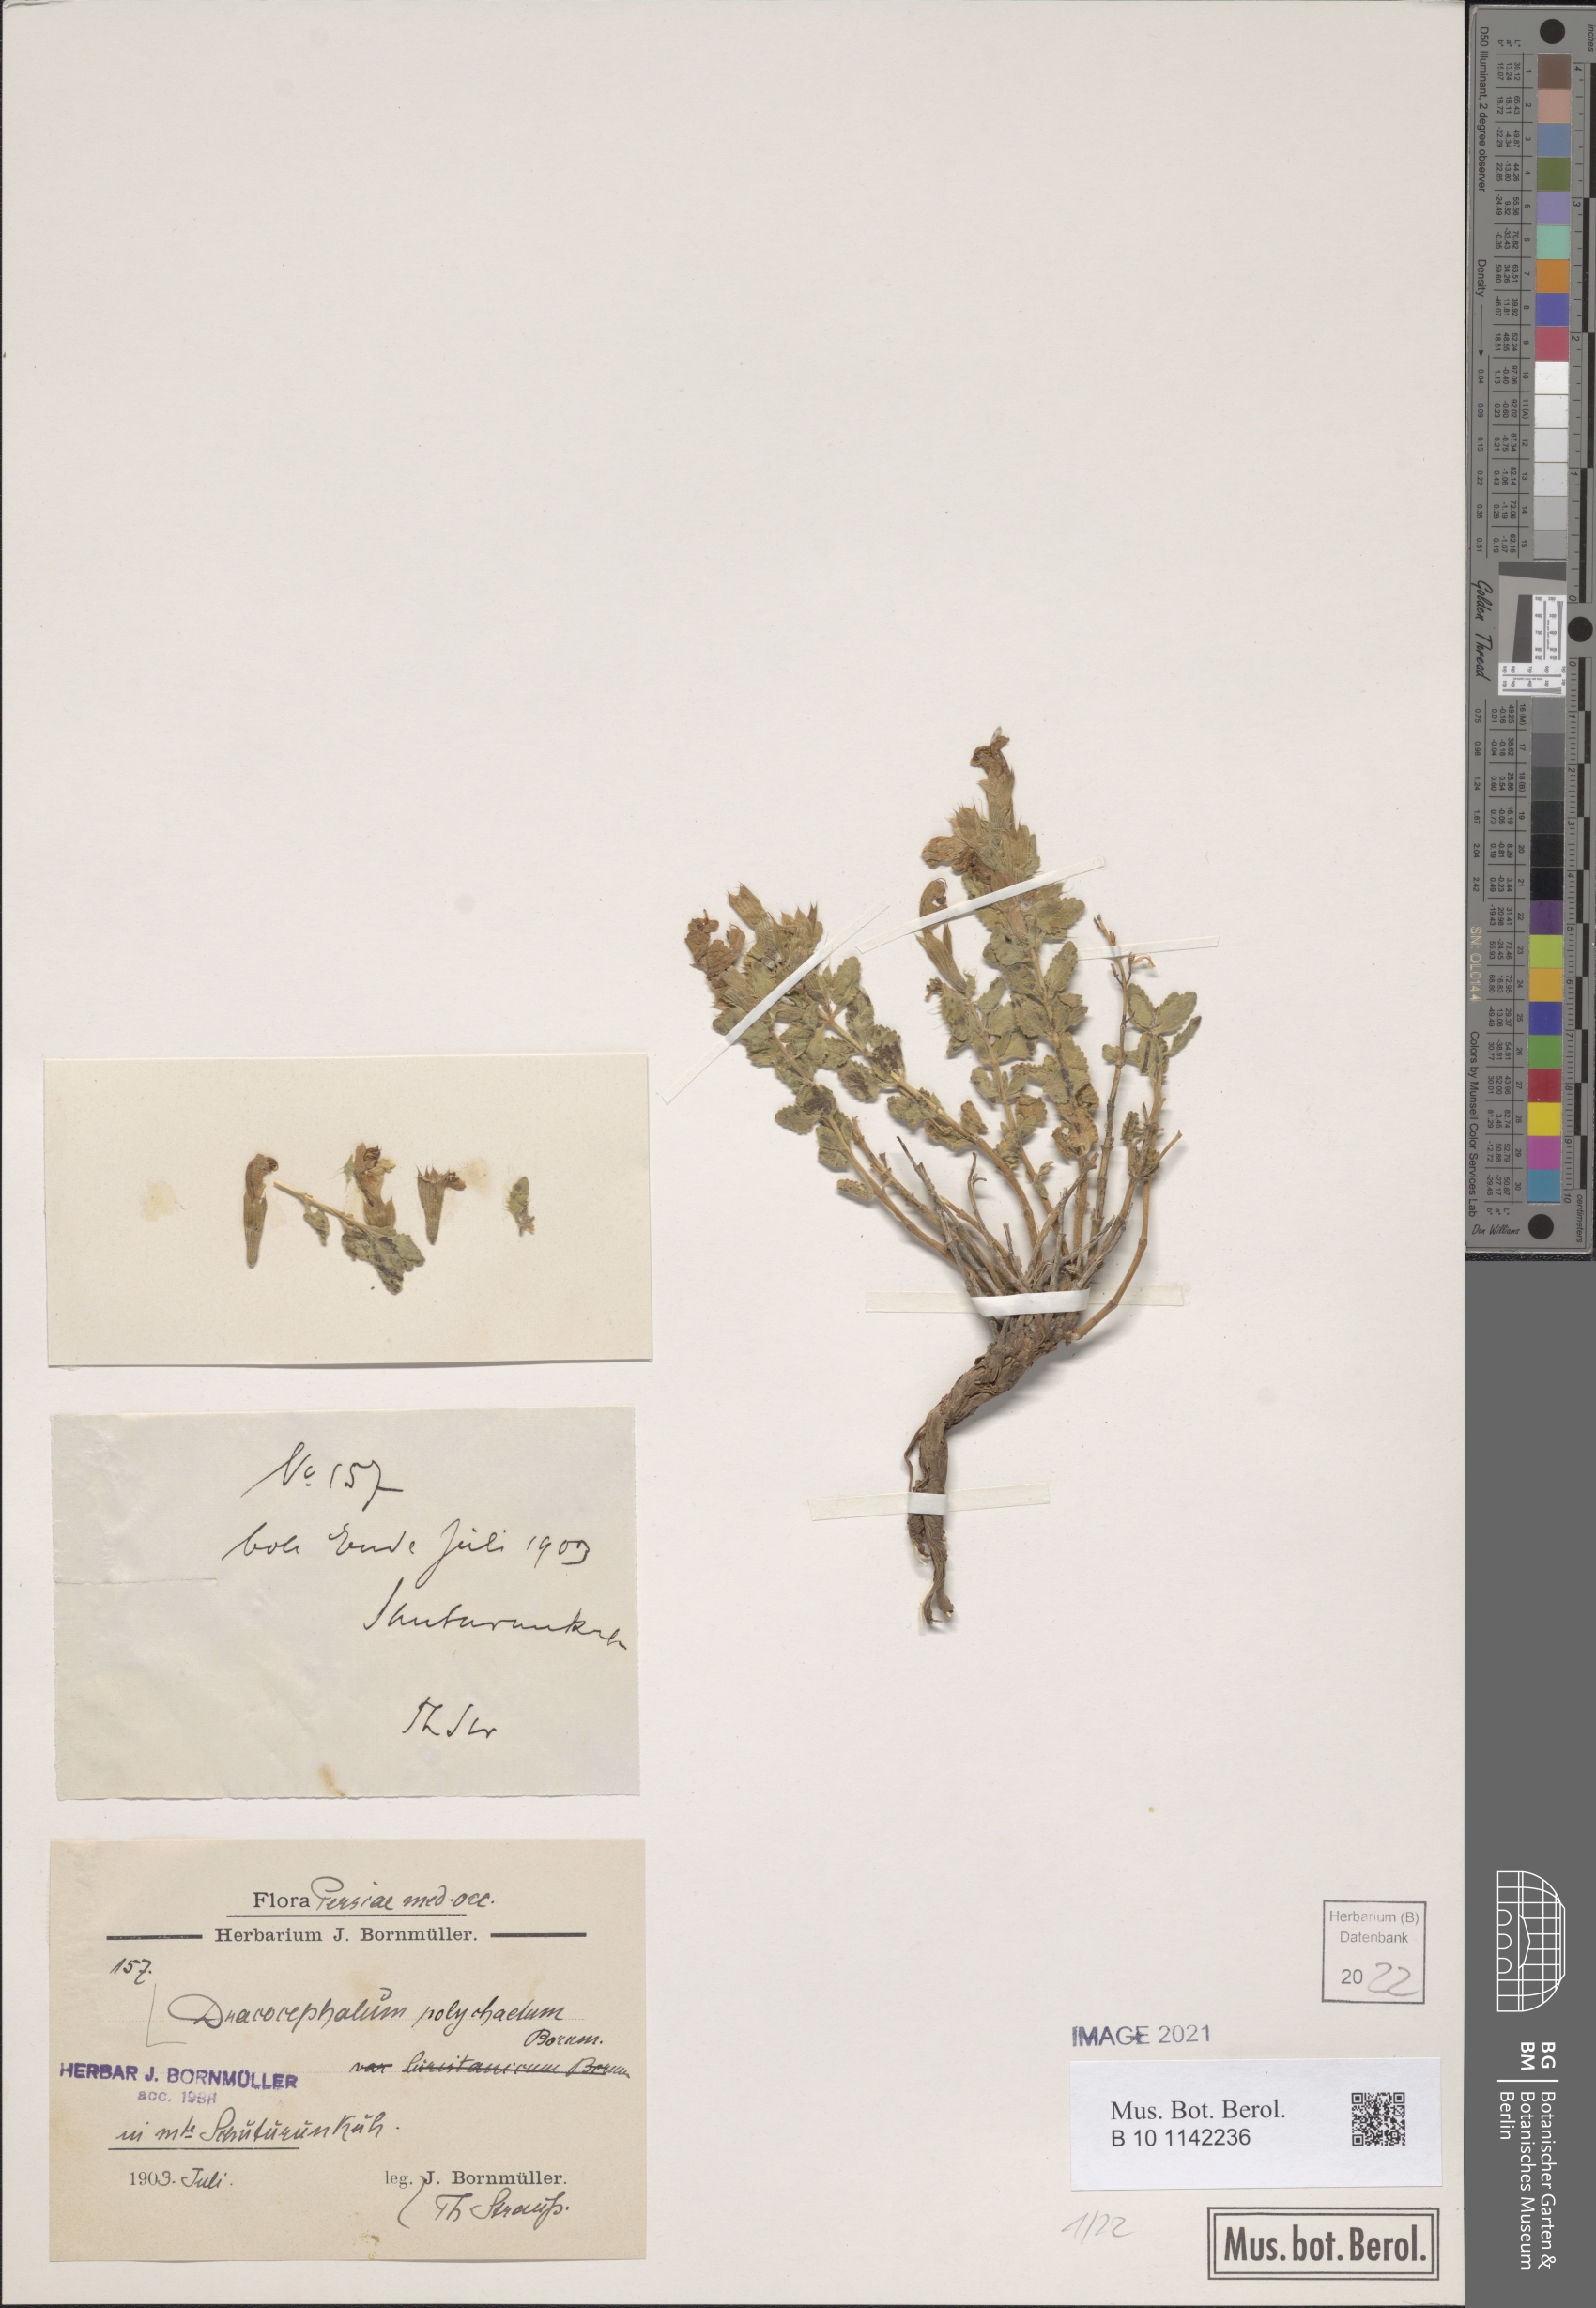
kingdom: Plantae
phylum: Tracheophyta
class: Magnoliopsida
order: Lamiales
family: Lamiaceae
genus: Dracocephalum
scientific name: Dracocephalum polychaetum
